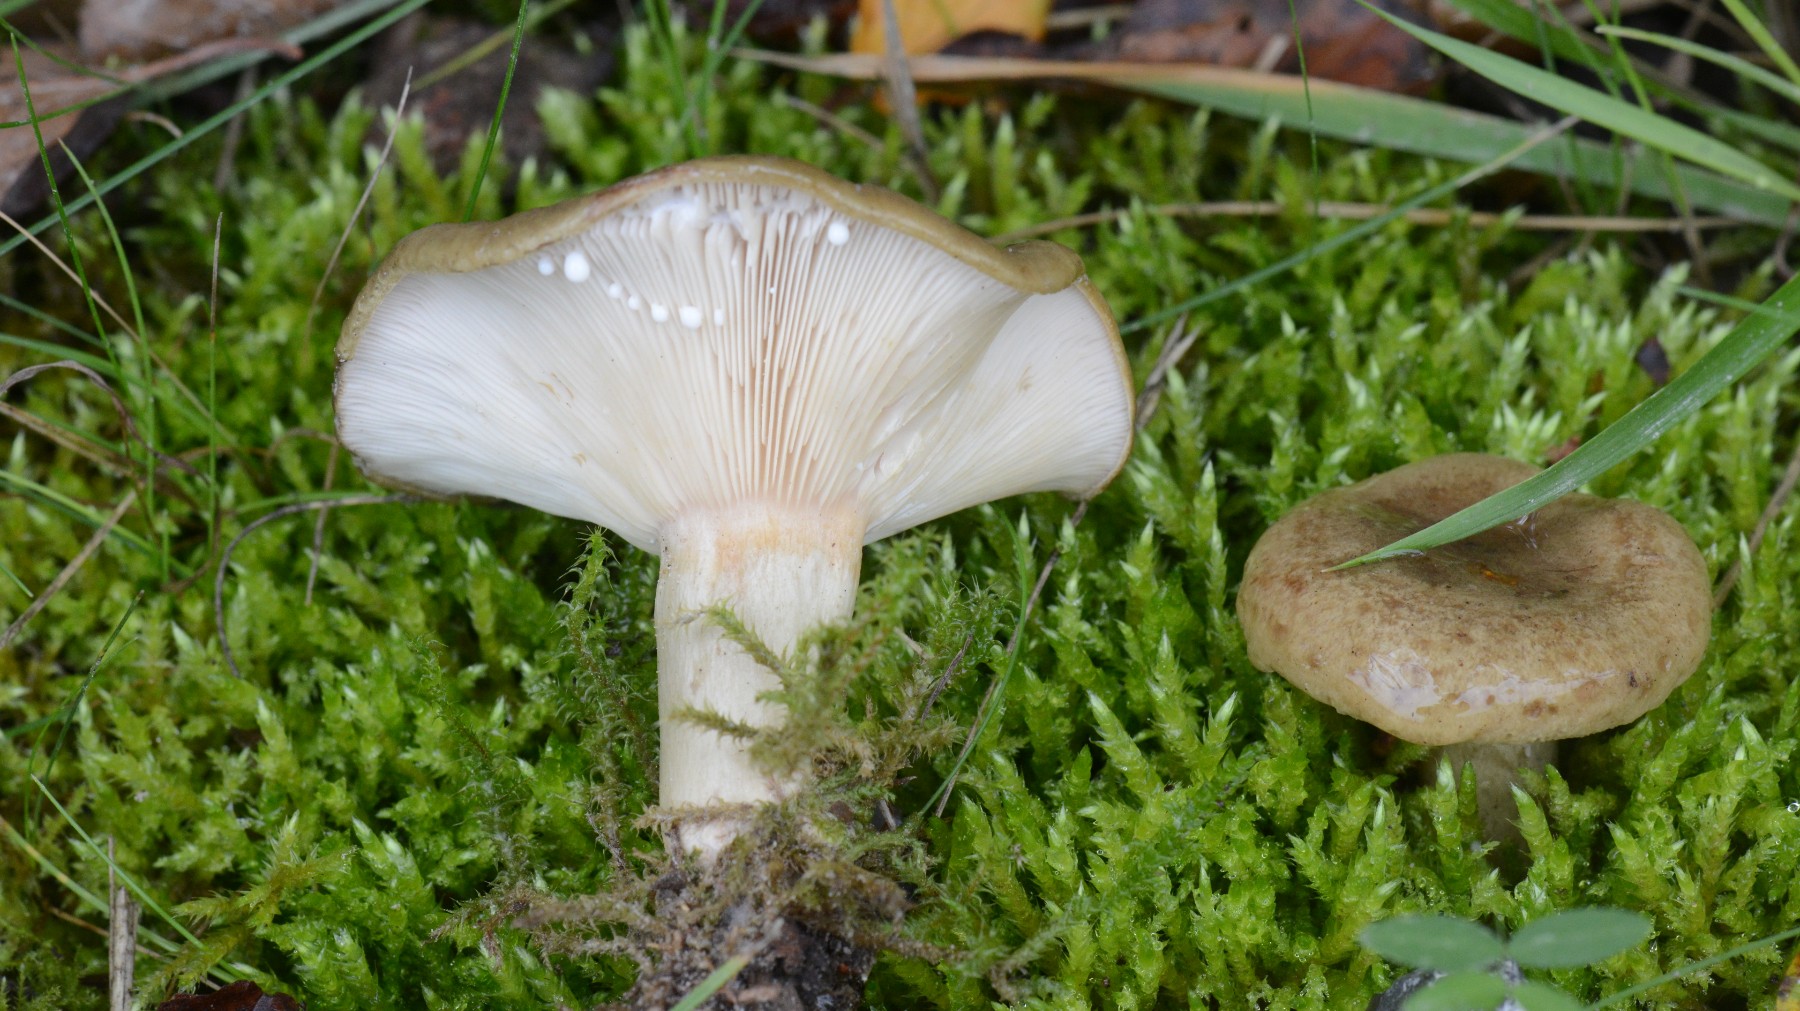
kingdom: Fungi
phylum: Basidiomycota
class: Agaricomycetes
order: Russulales
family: Russulaceae
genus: Lactarius
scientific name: Lactarius blennius
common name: dråbeplettet mælkehat
